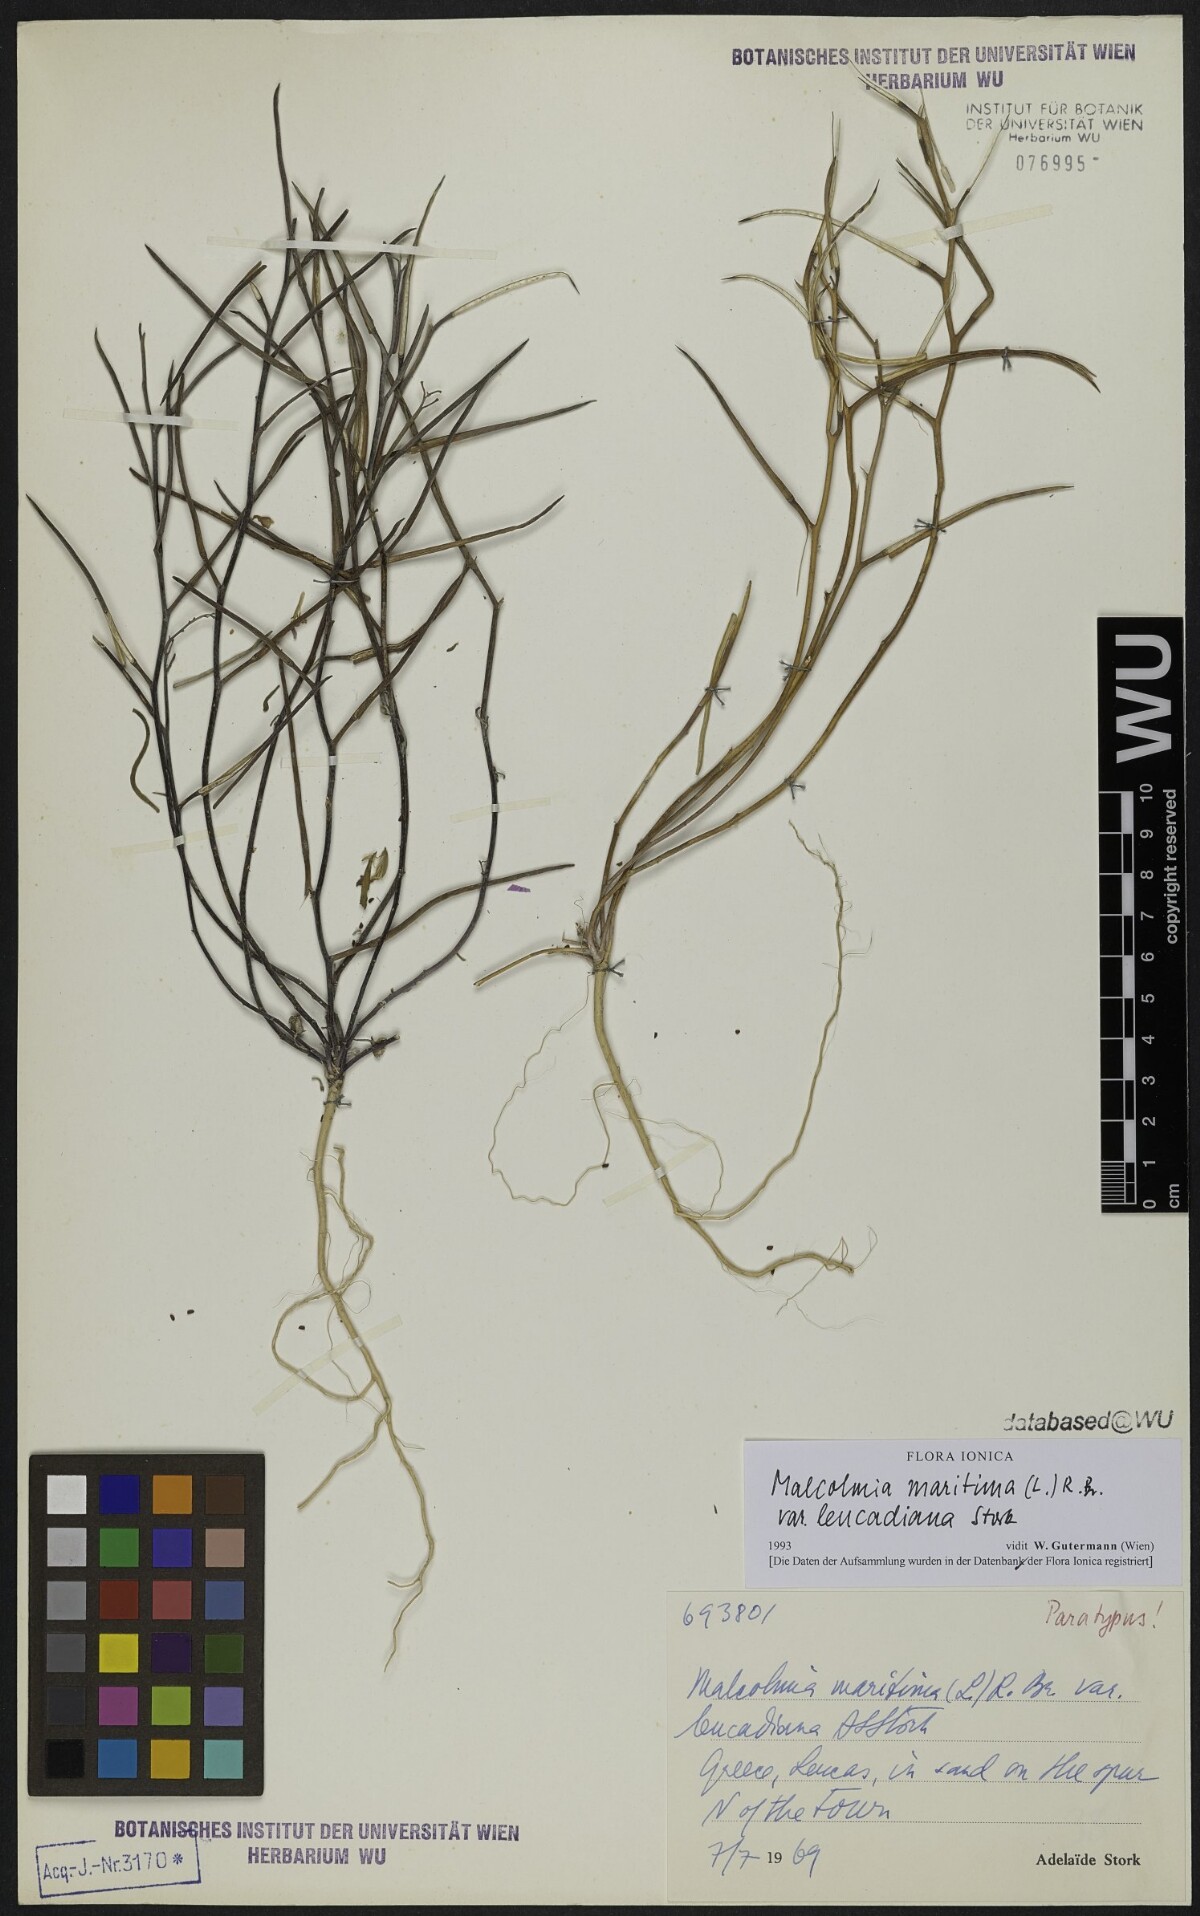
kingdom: Plantae
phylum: Tracheophyta
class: Magnoliopsida
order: Brassicales
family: Brassicaceae
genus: Malcolmia
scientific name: Malcolmia maritima
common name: Virginia stock
